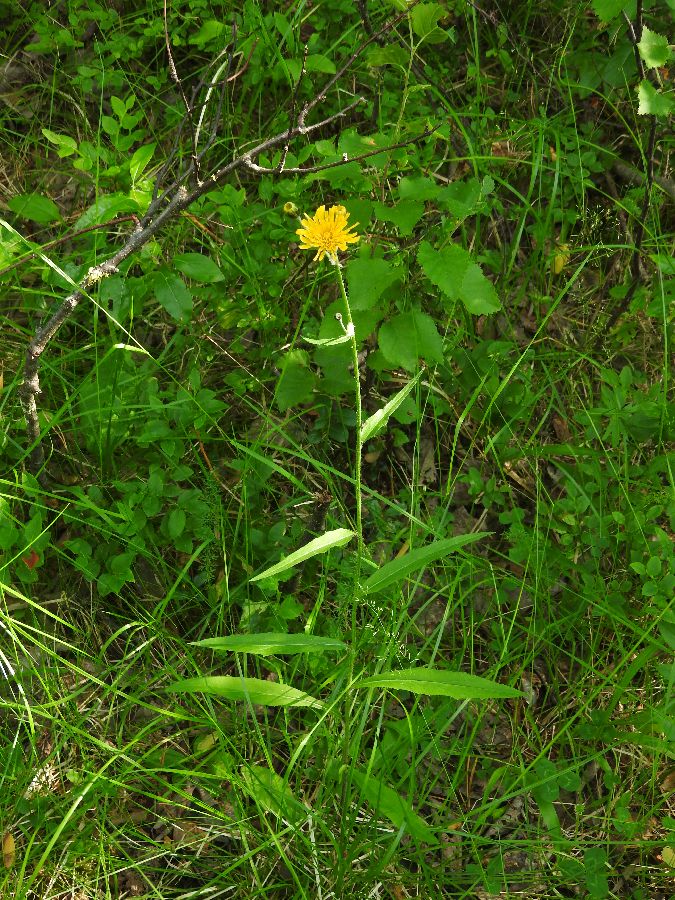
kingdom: Plantae
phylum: Tracheophyta
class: Magnoliopsida
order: Asterales
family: Asteraceae
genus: Hieracium
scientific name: Hieracium laevigatum
